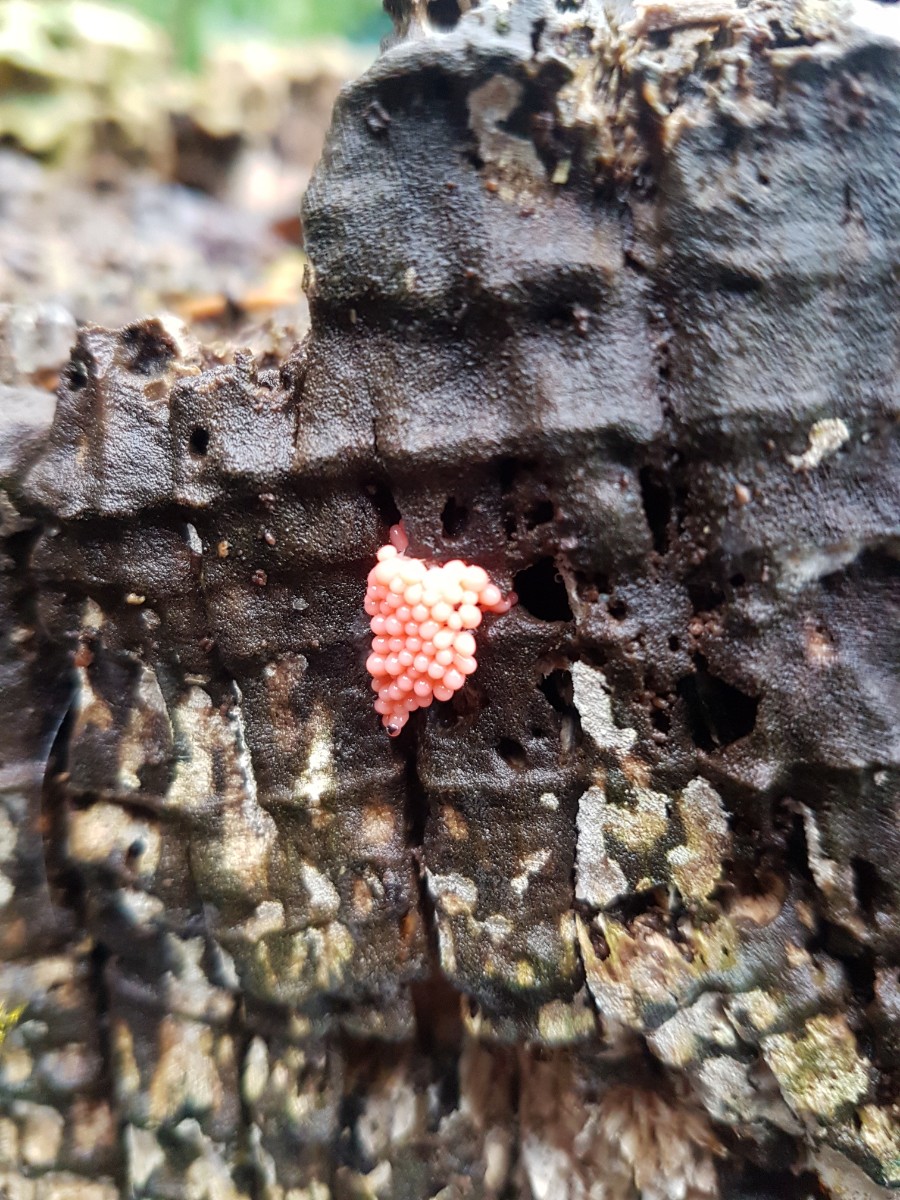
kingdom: Protozoa
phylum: Mycetozoa
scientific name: Mycetozoa
